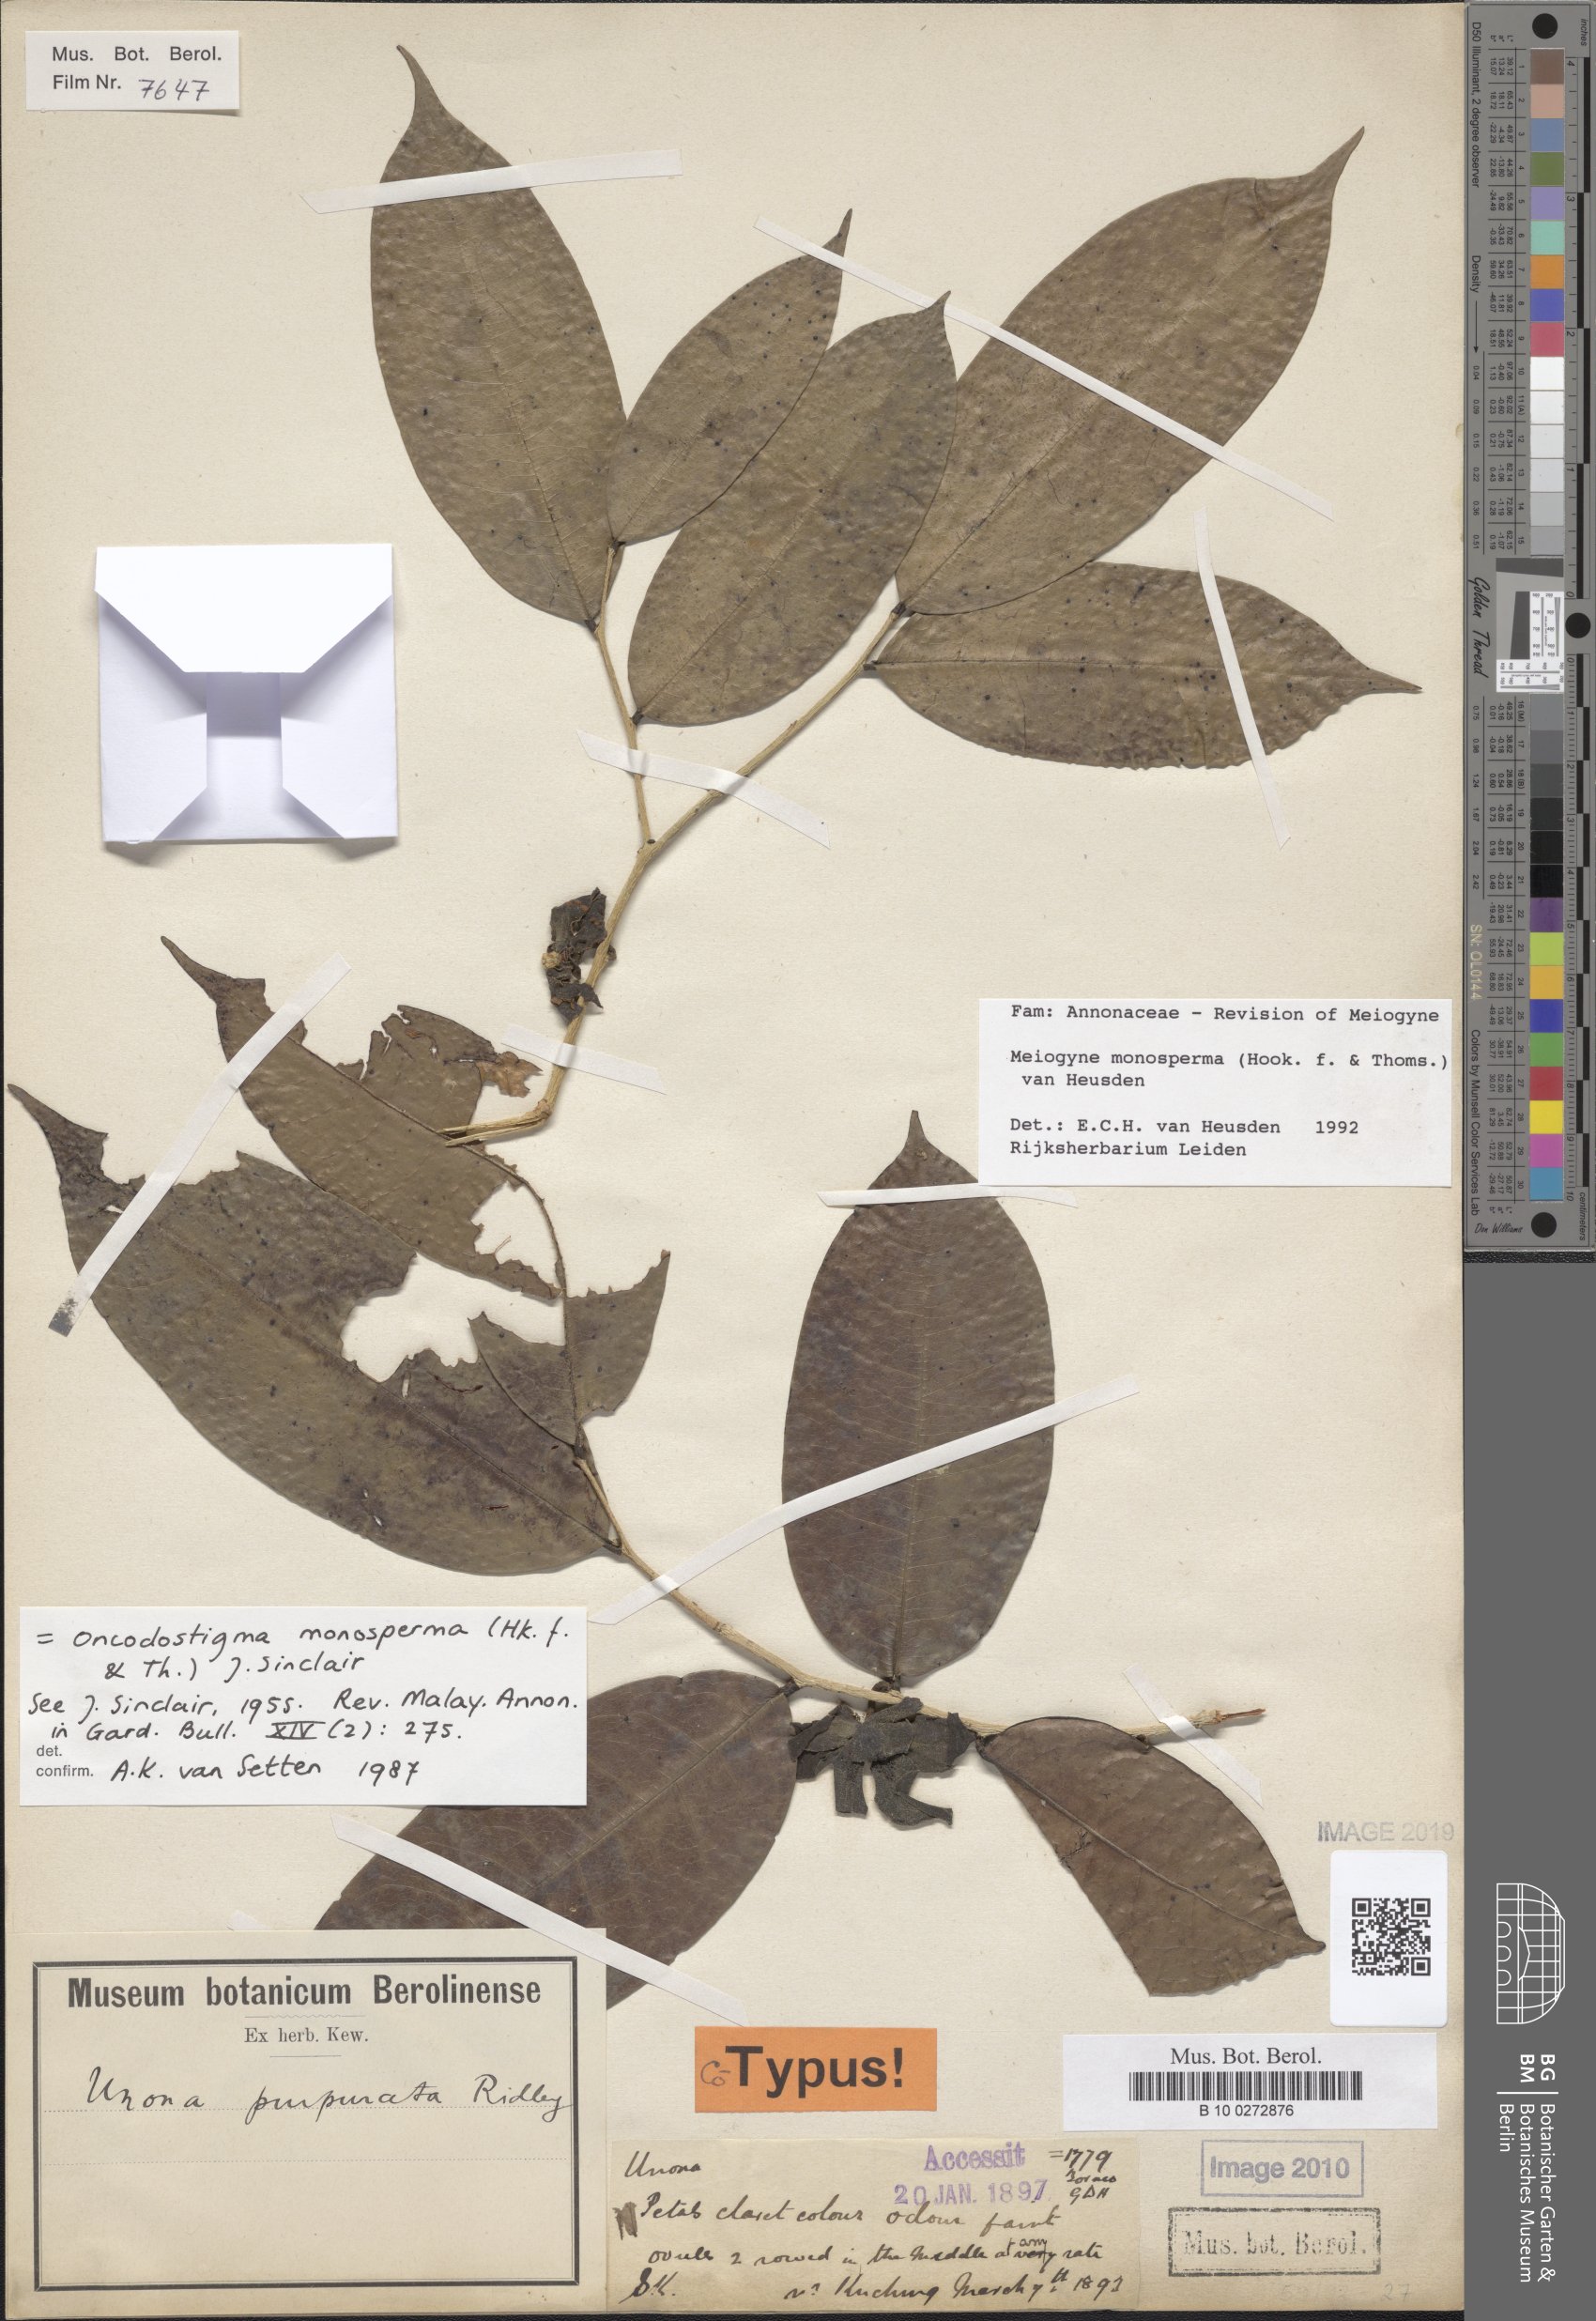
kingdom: Plantae
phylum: Tracheophyta
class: Magnoliopsida
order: Magnoliales
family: Annonaceae
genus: Meiogyne
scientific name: Meiogyne monosperma
